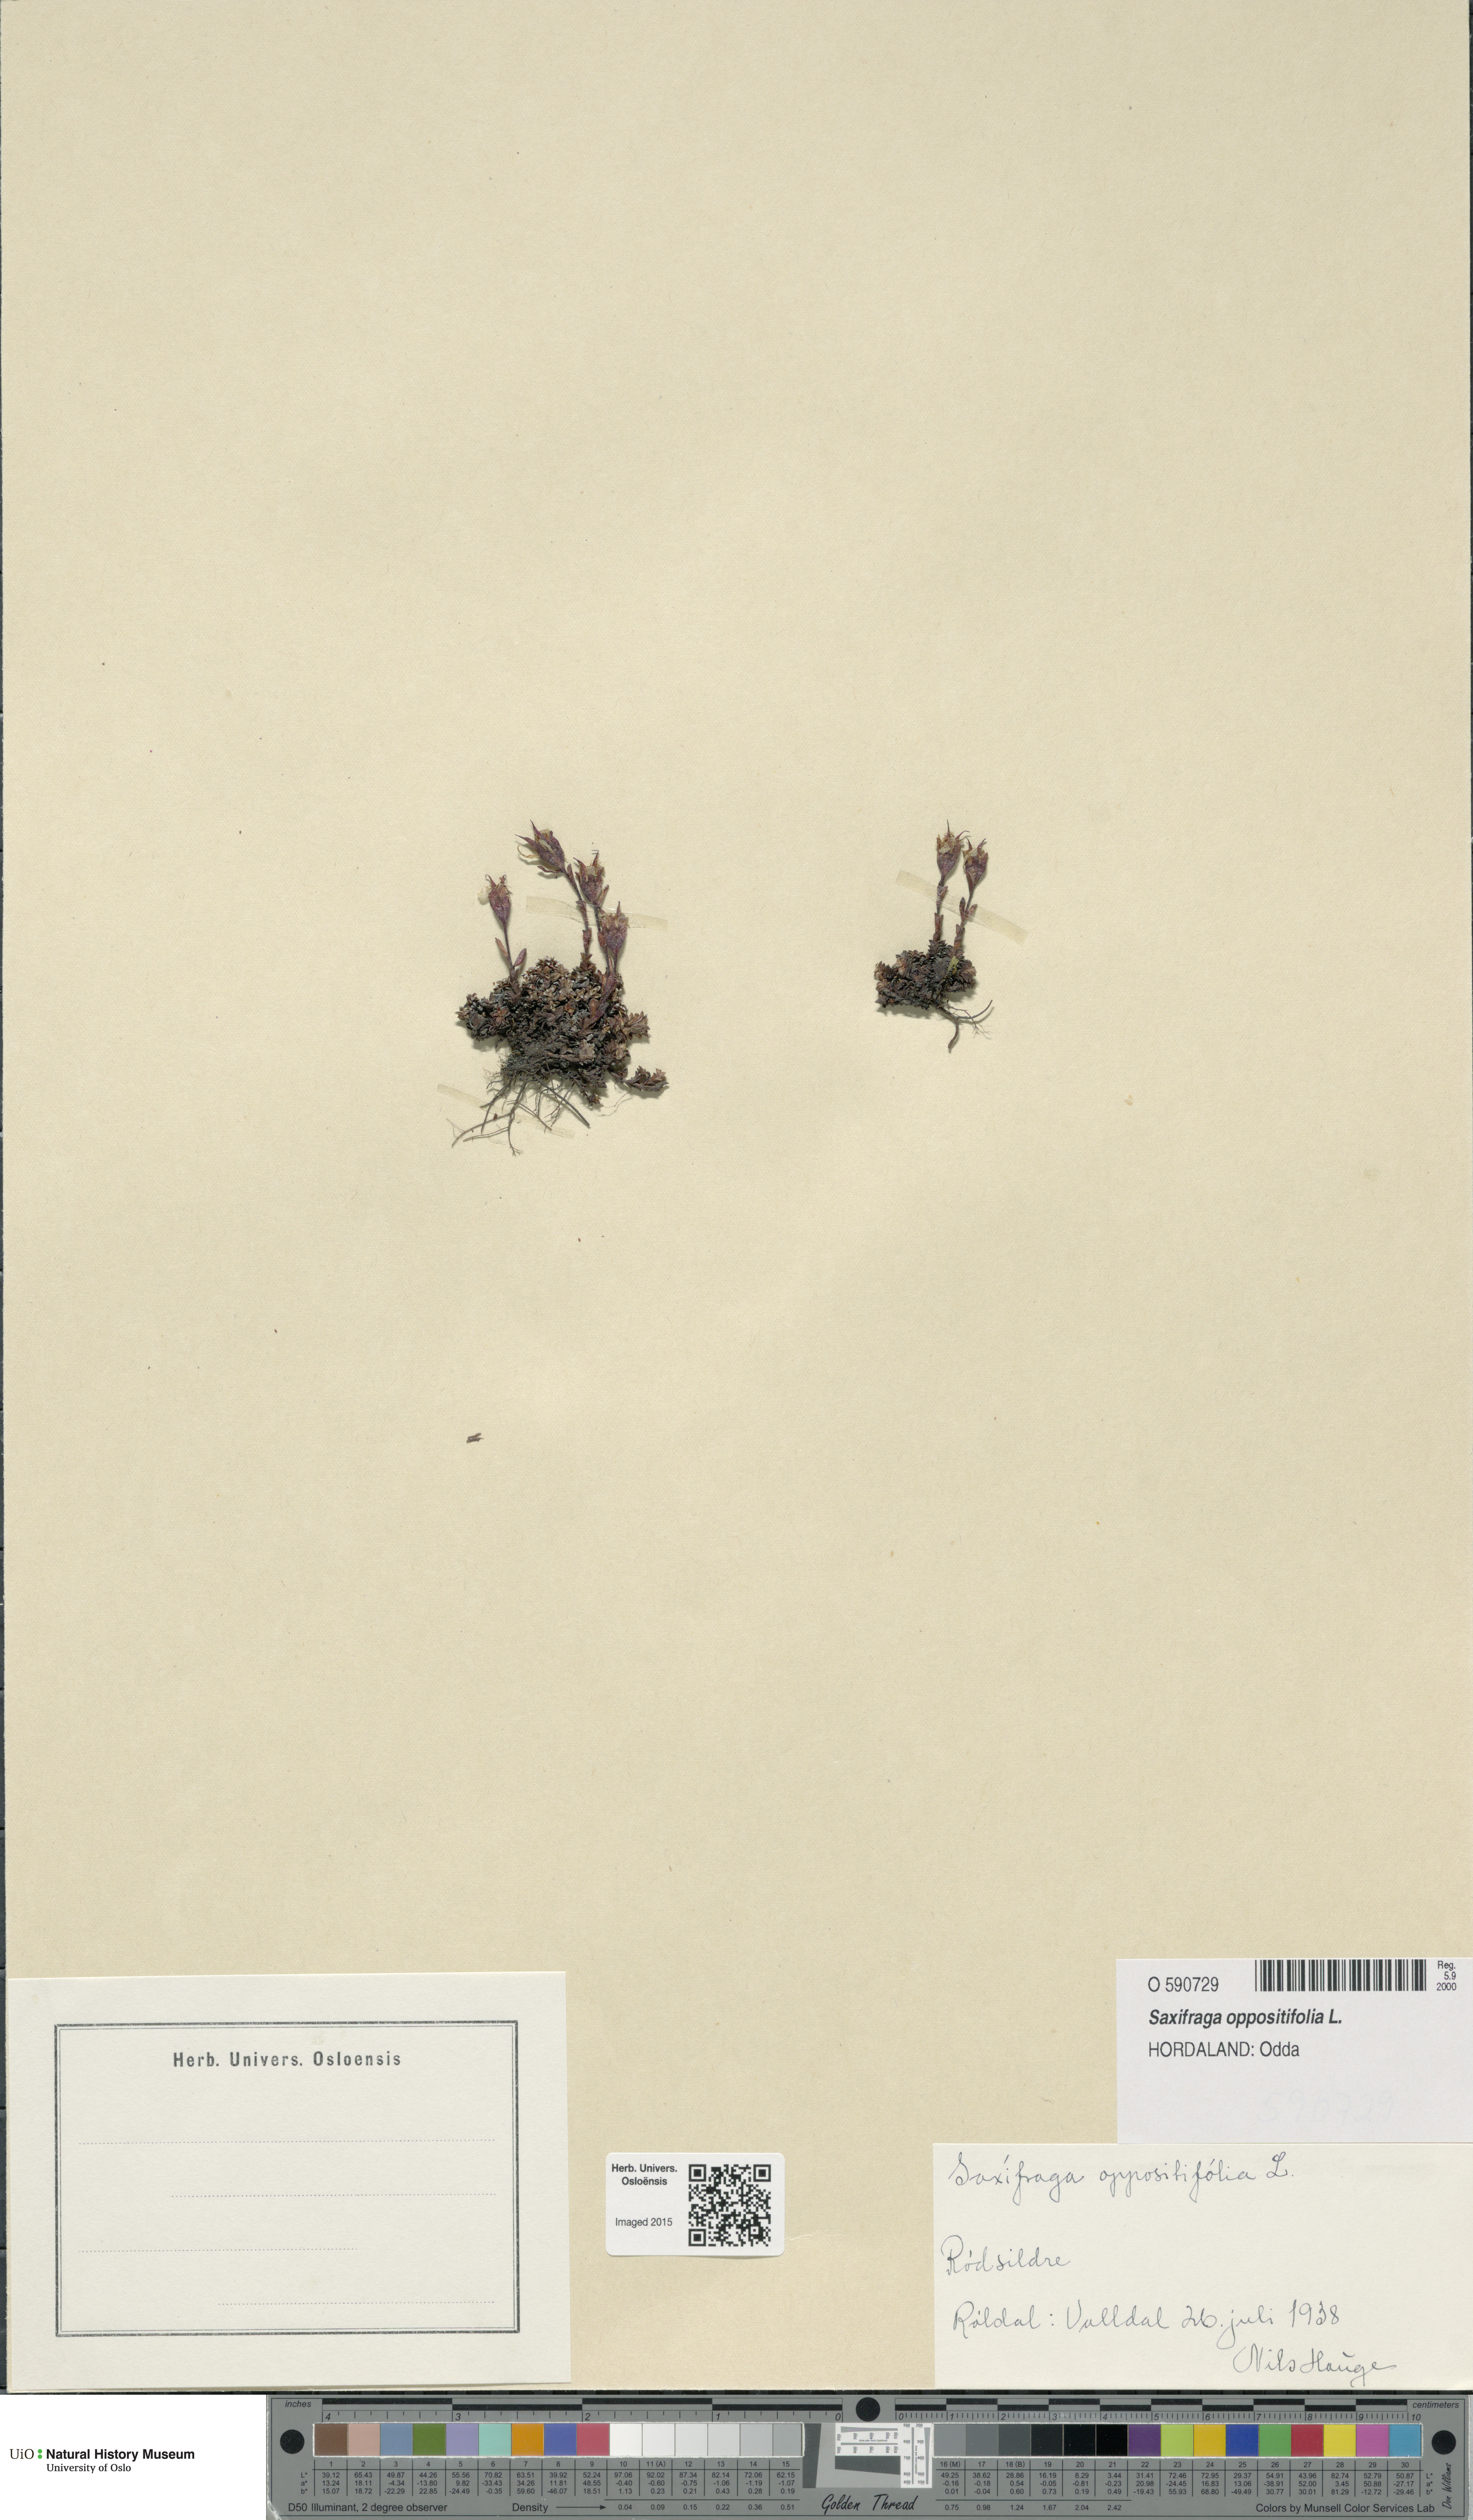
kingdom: Plantae
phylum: Tracheophyta
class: Magnoliopsida
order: Saxifragales
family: Saxifragaceae
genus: Saxifraga
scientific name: Saxifraga oppositifolia
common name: Purple saxifrage
